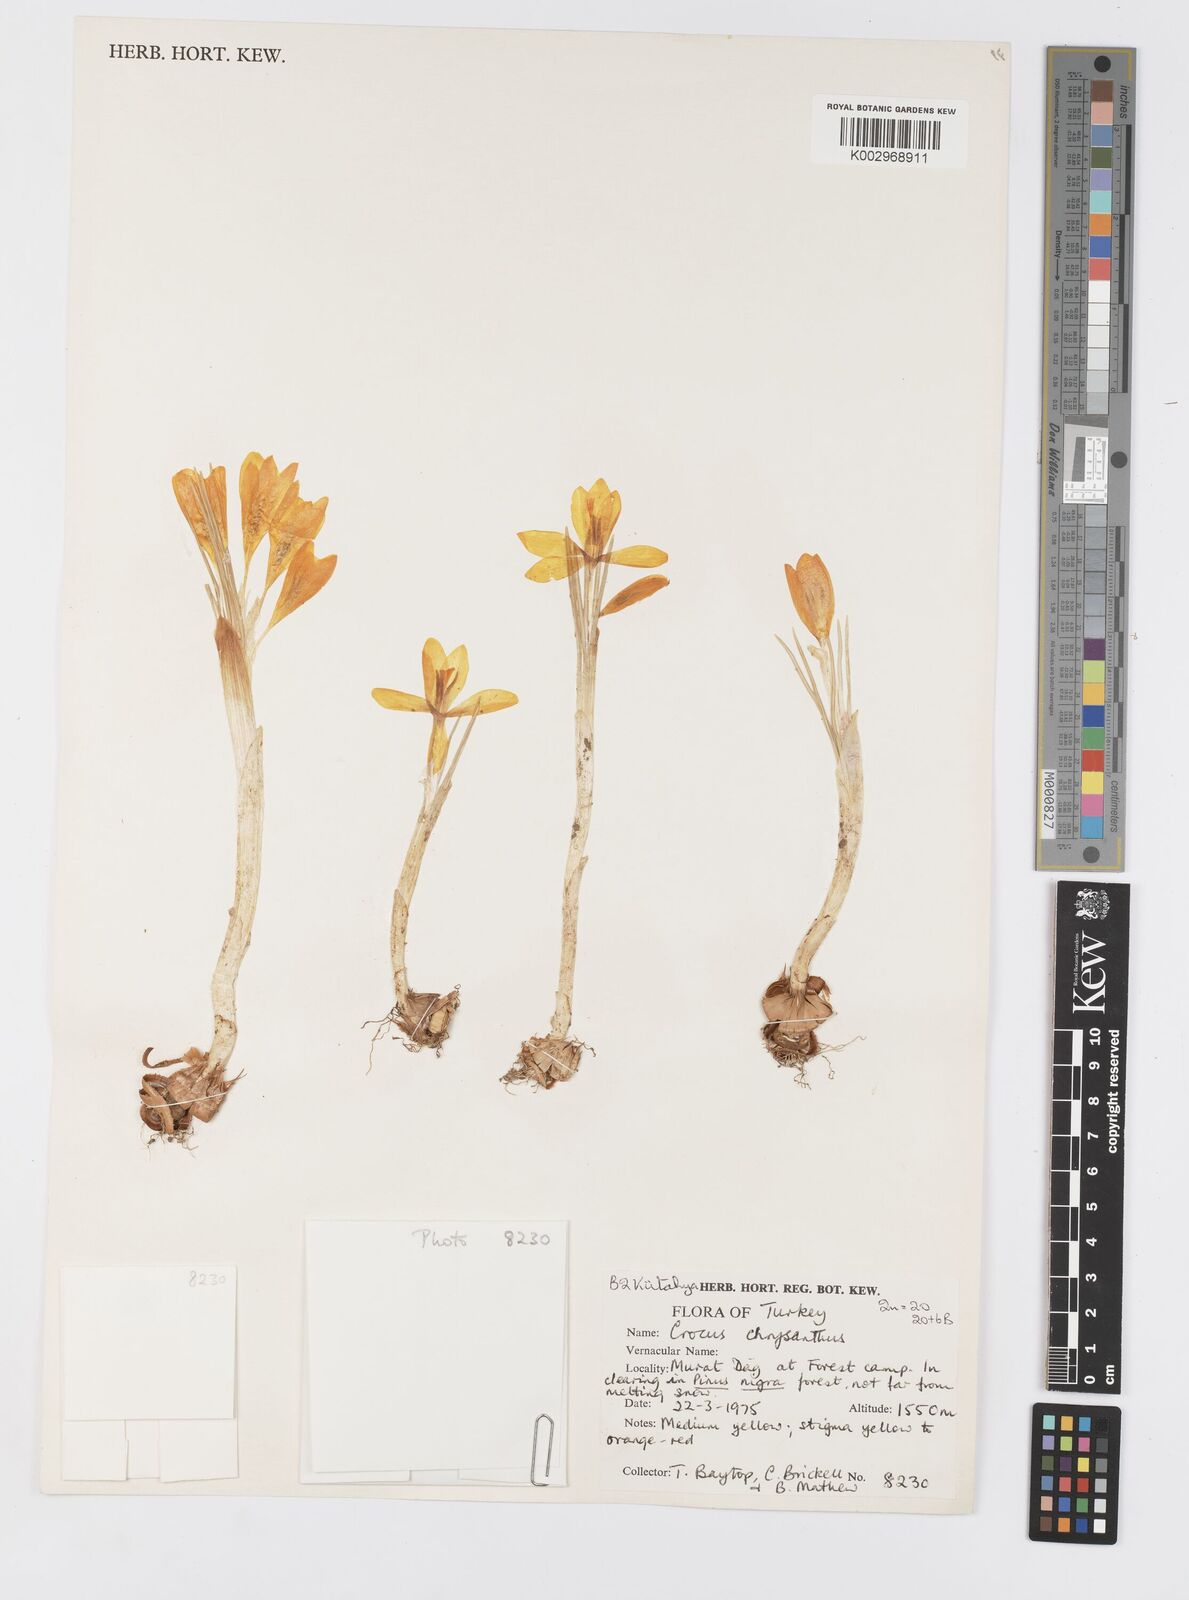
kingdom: Plantae
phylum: Tracheophyta
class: Liliopsida
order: Asparagales
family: Iridaceae
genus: Crocus
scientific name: Crocus chrysanthus
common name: Golden crocus
